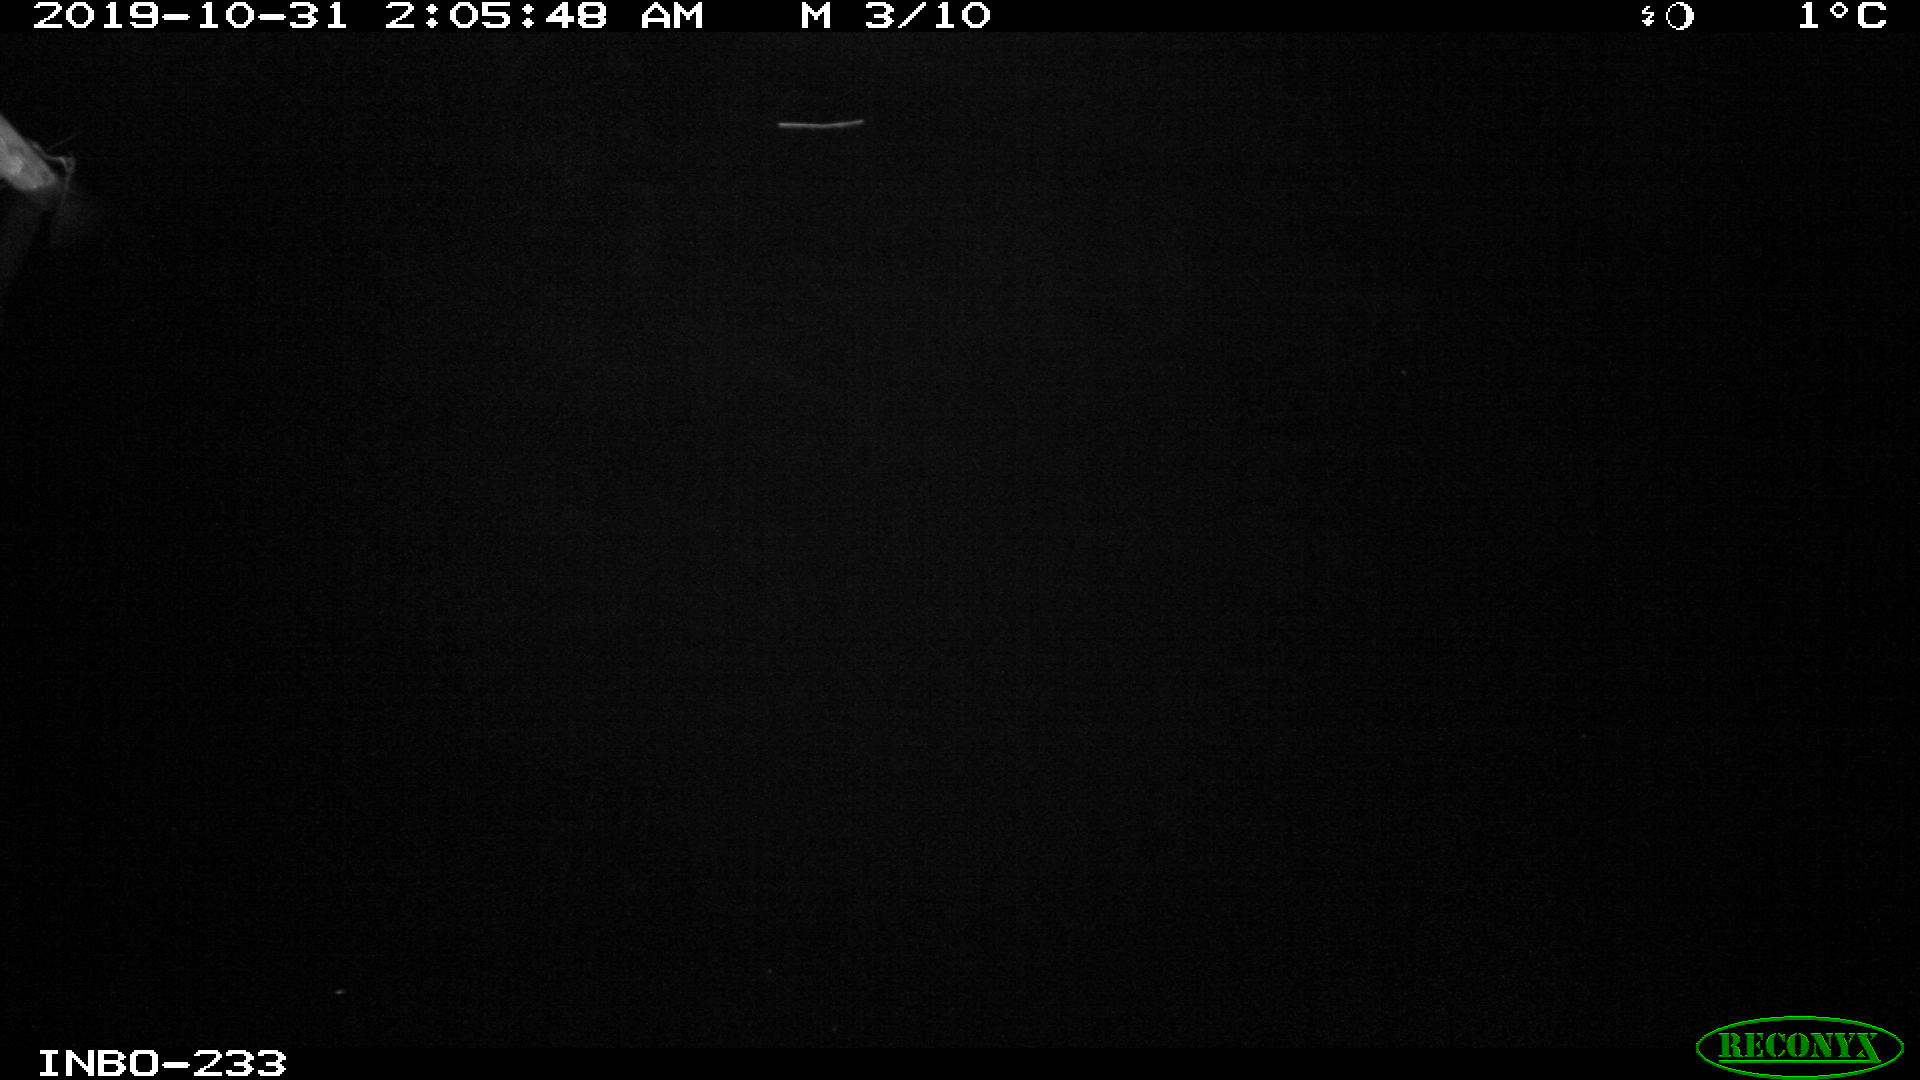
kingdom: Animalia
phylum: Chordata
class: Aves
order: Anseriformes
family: Anatidae
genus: Anas
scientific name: Anas platyrhynchos
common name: Mallard
